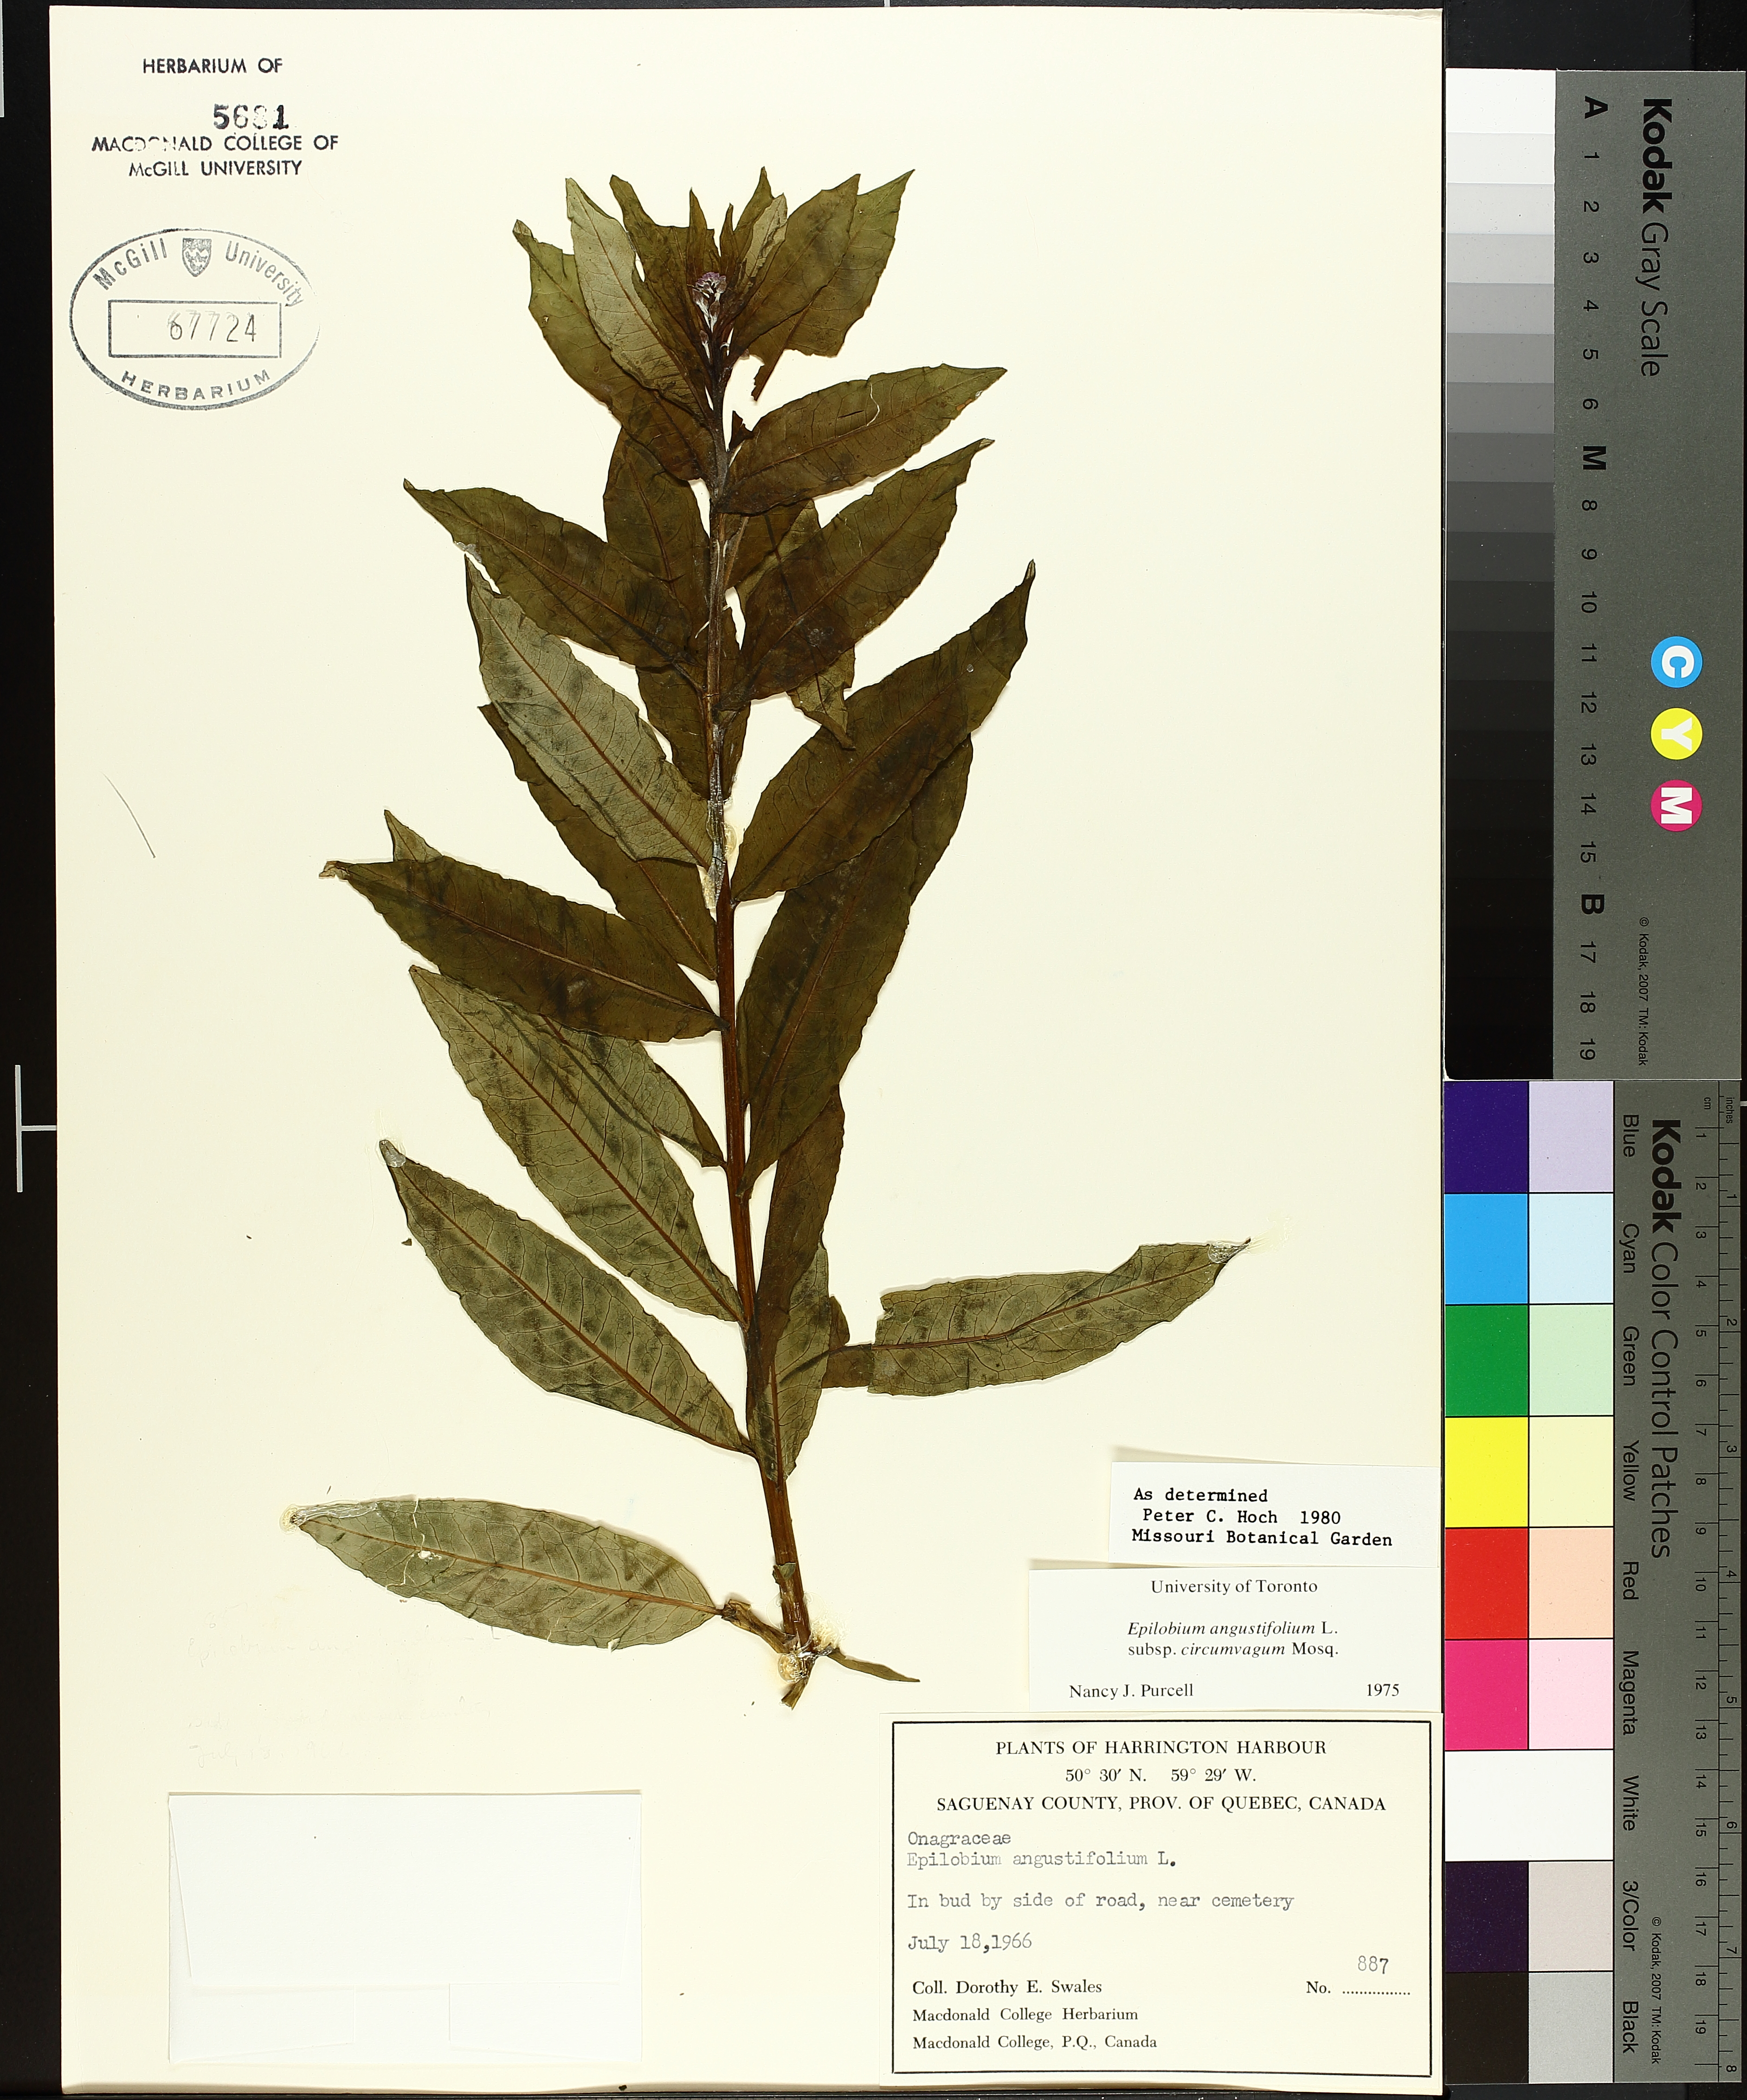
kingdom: Plantae
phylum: Tracheophyta
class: Magnoliopsida
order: Myrtales
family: Onagraceae
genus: Chamaenerion
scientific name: Chamaenerion
